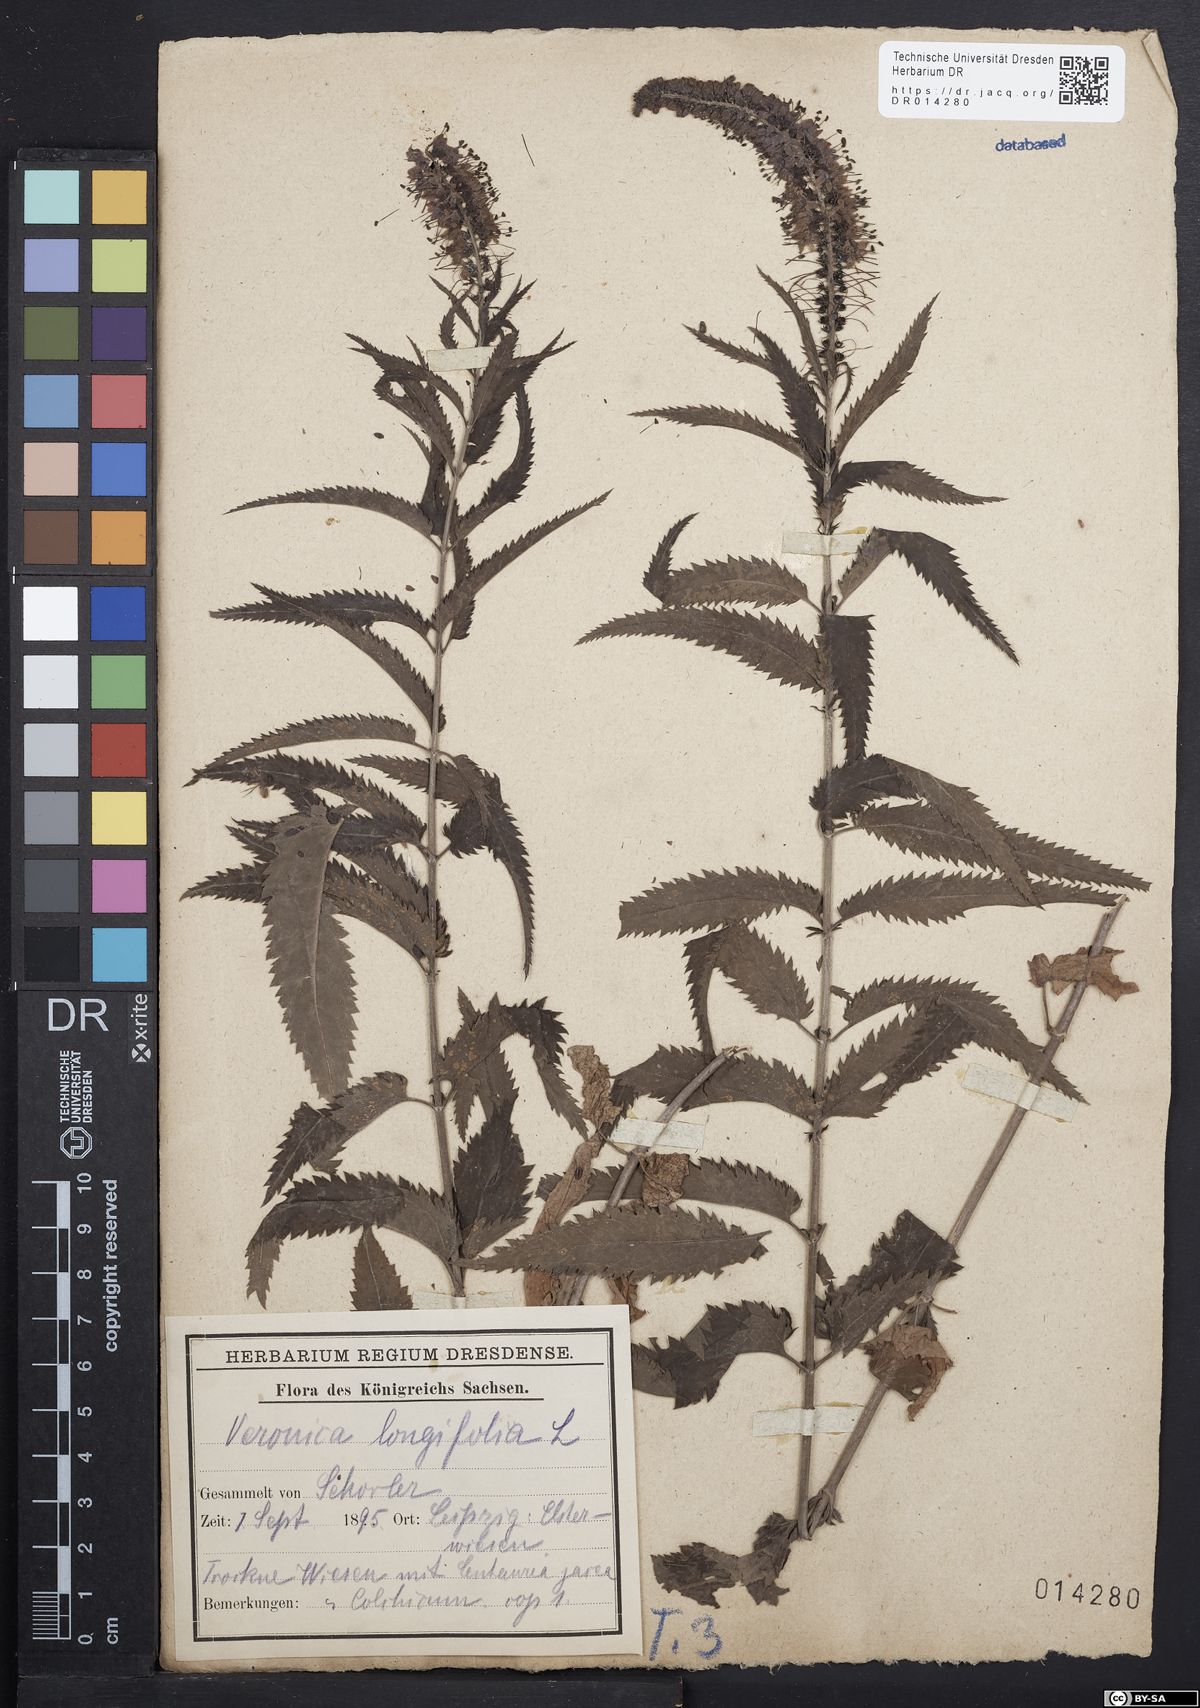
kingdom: Plantae
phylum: Tracheophyta
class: Magnoliopsida
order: Lamiales
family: Plantaginaceae
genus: Veronica
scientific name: Veronica longifolia
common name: Garden speedwell
